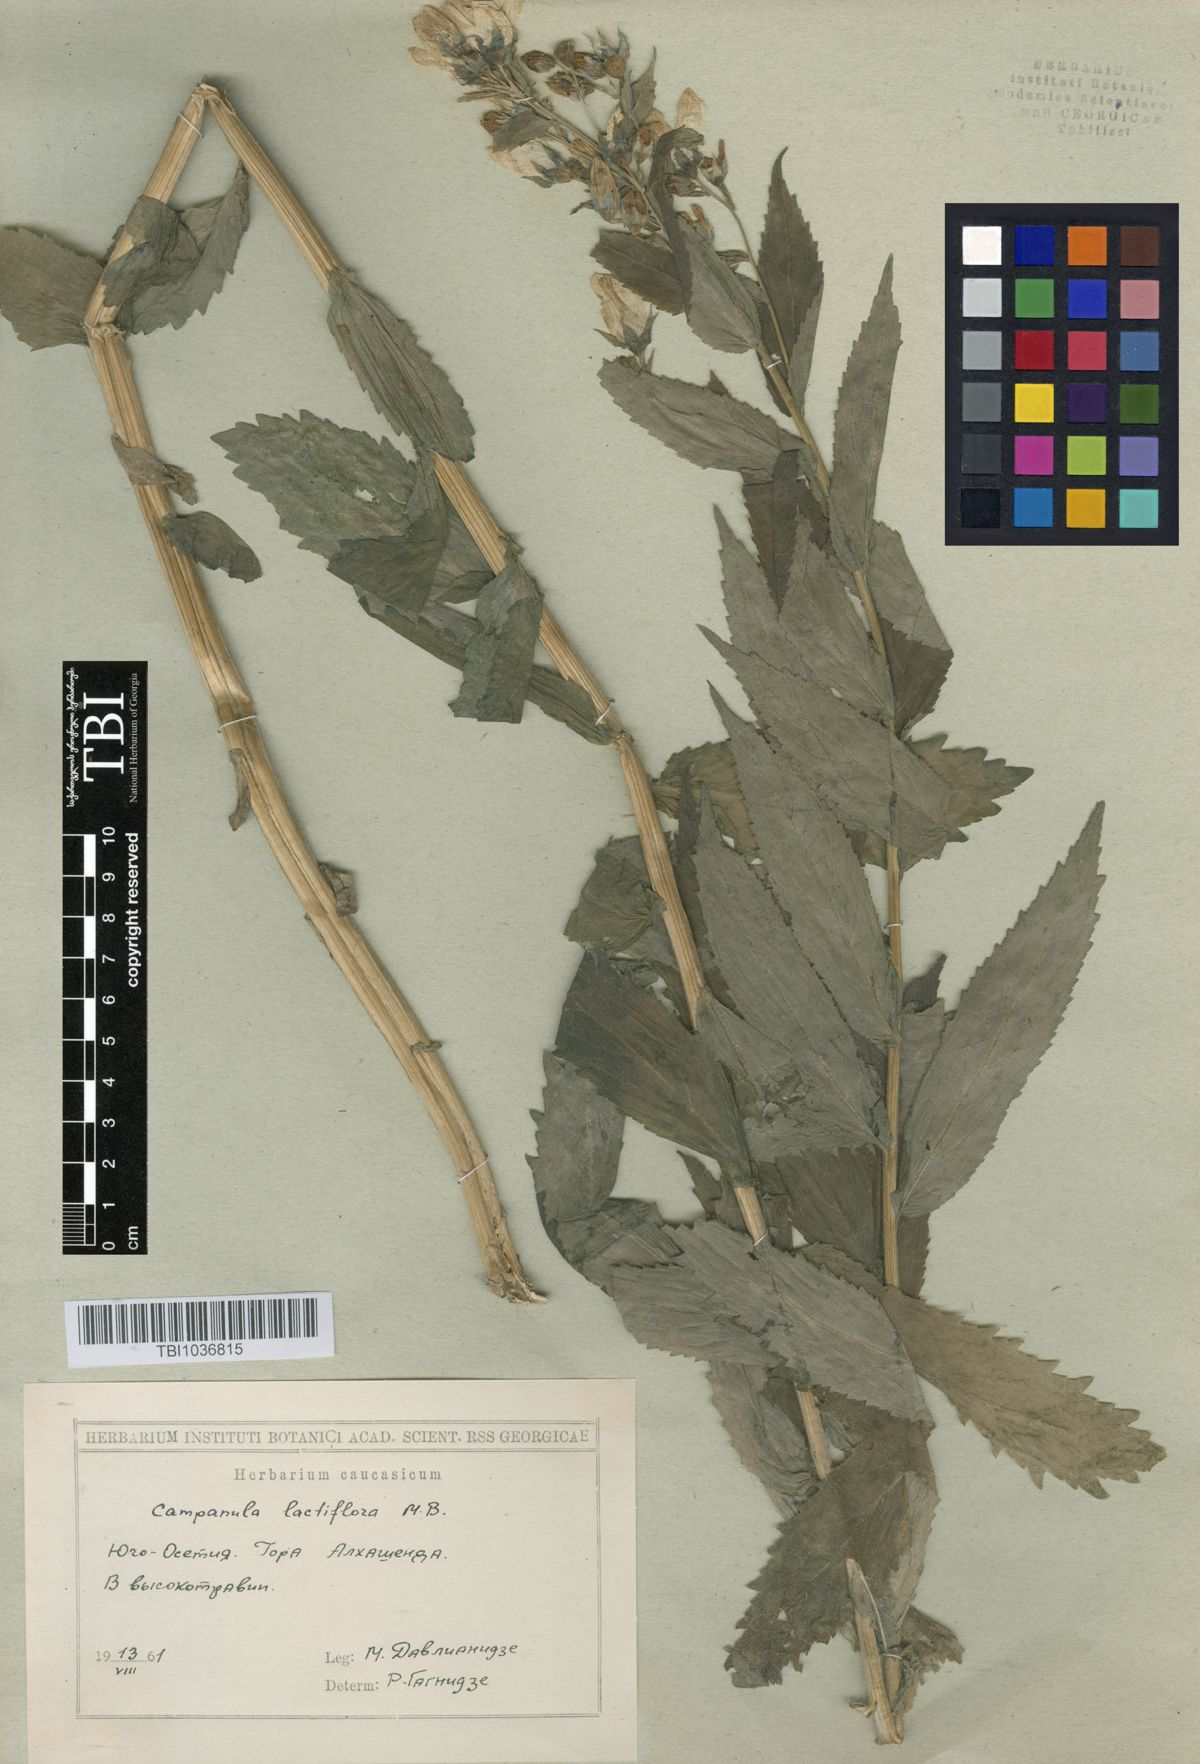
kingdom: Plantae
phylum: Tracheophyta
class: Magnoliopsida
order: Asterales
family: Campanulaceae
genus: Campanula
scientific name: Campanula lactiflora
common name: Milky bellflower
